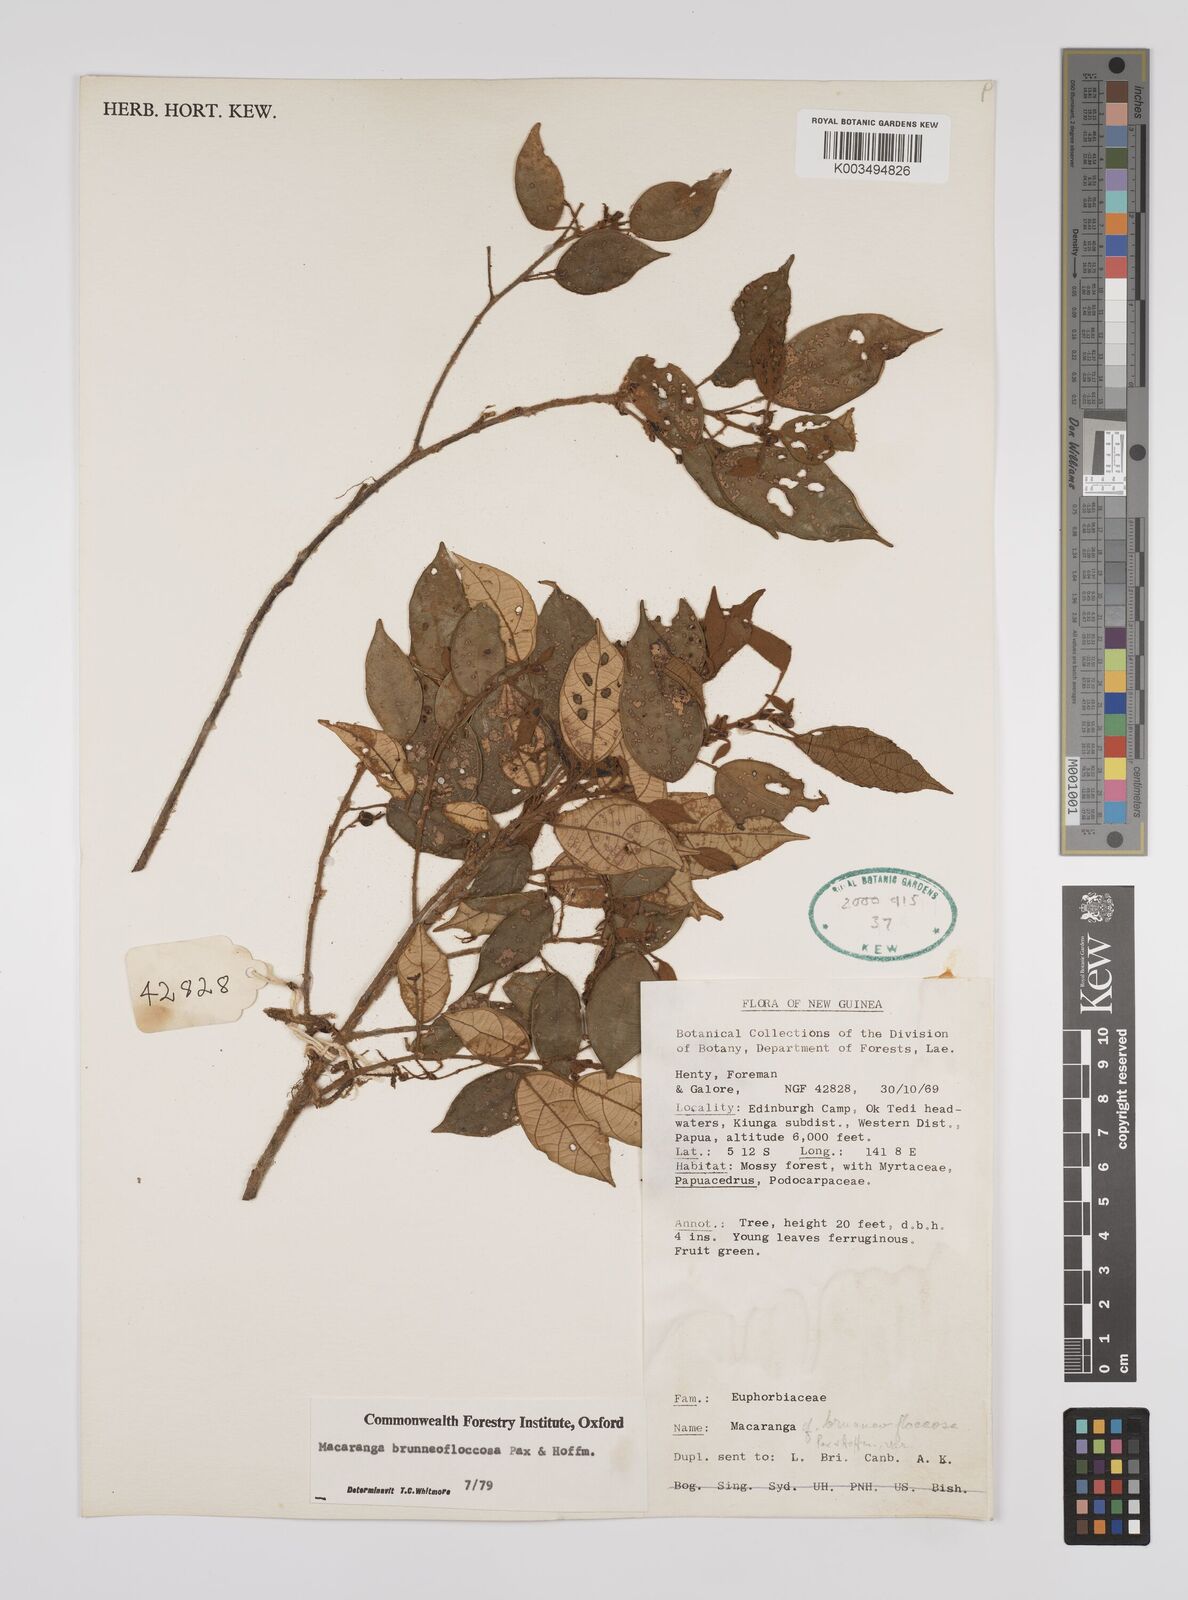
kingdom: Plantae
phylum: Tracheophyta
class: Magnoliopsida
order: Malpighiales
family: Euphorbiaceae
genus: Macaranga
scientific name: Macaranga brunneofloccosa
